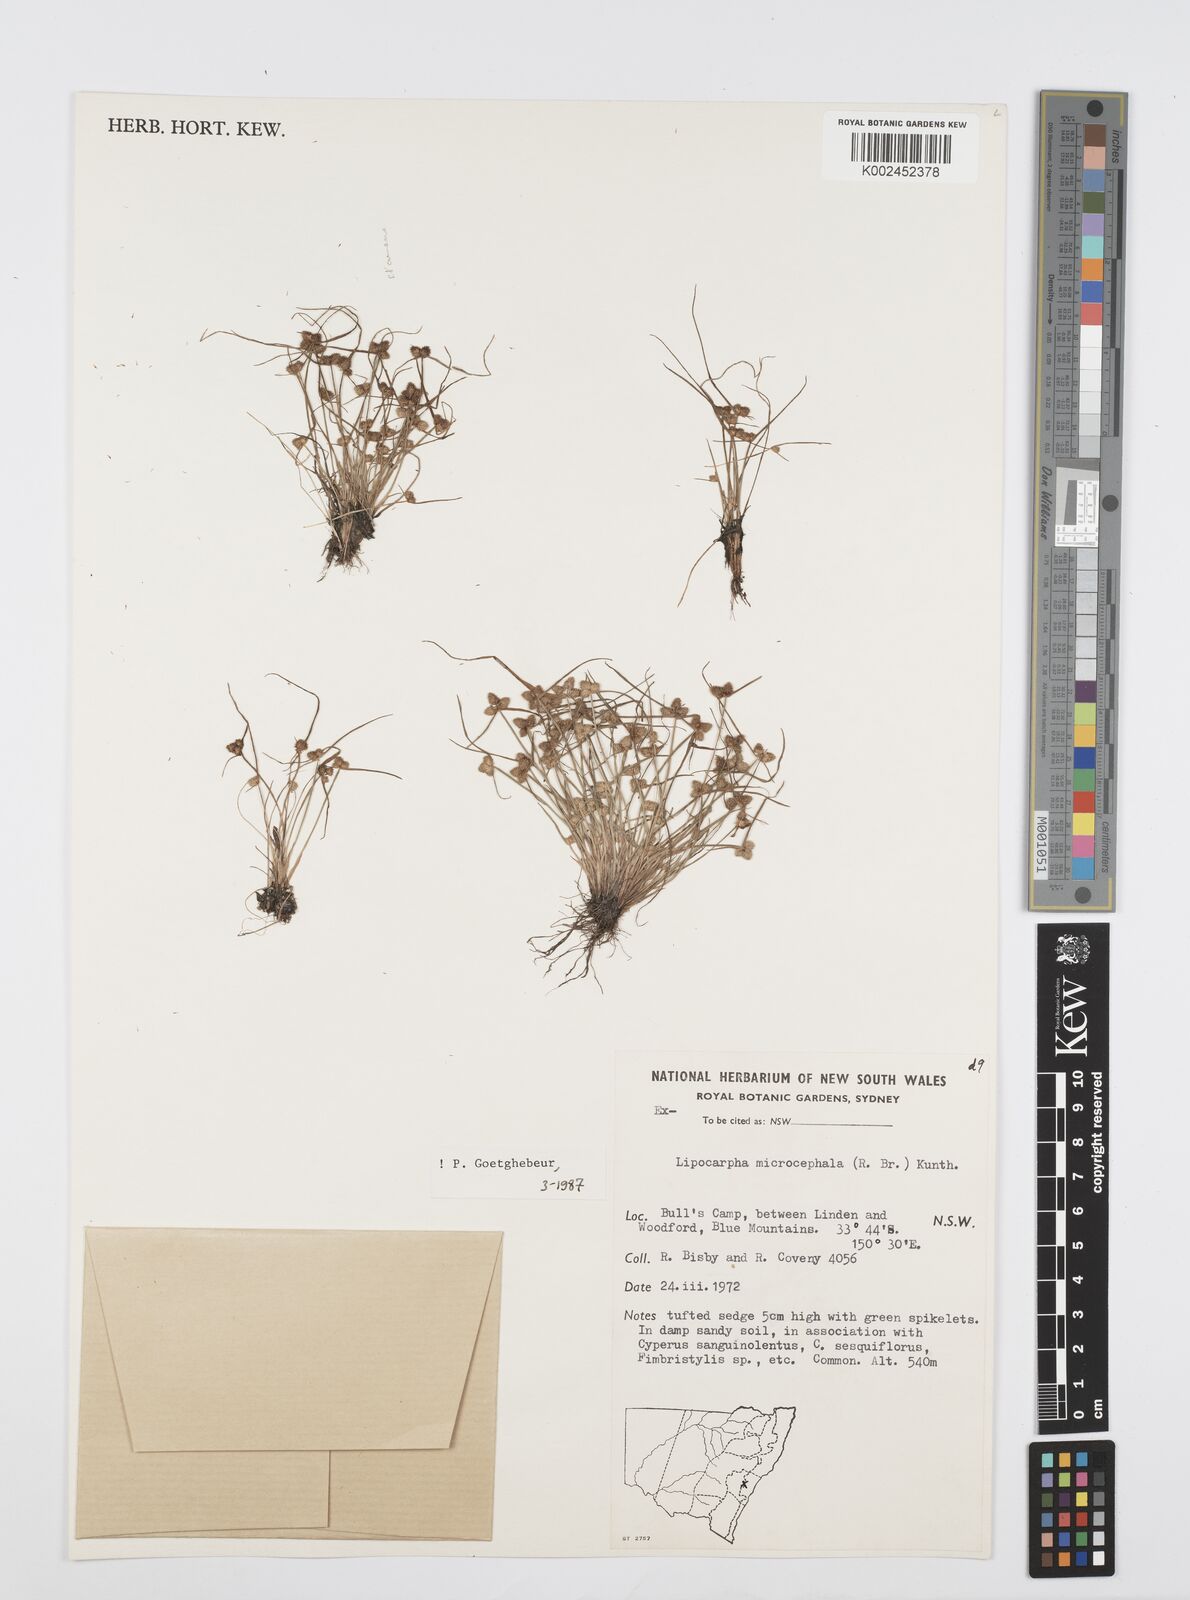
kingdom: Plantae
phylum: Tracheophyta
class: Liliopsida
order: Poales
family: Cyperaceae
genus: Cyperus
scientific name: Cyperus microcephalus
